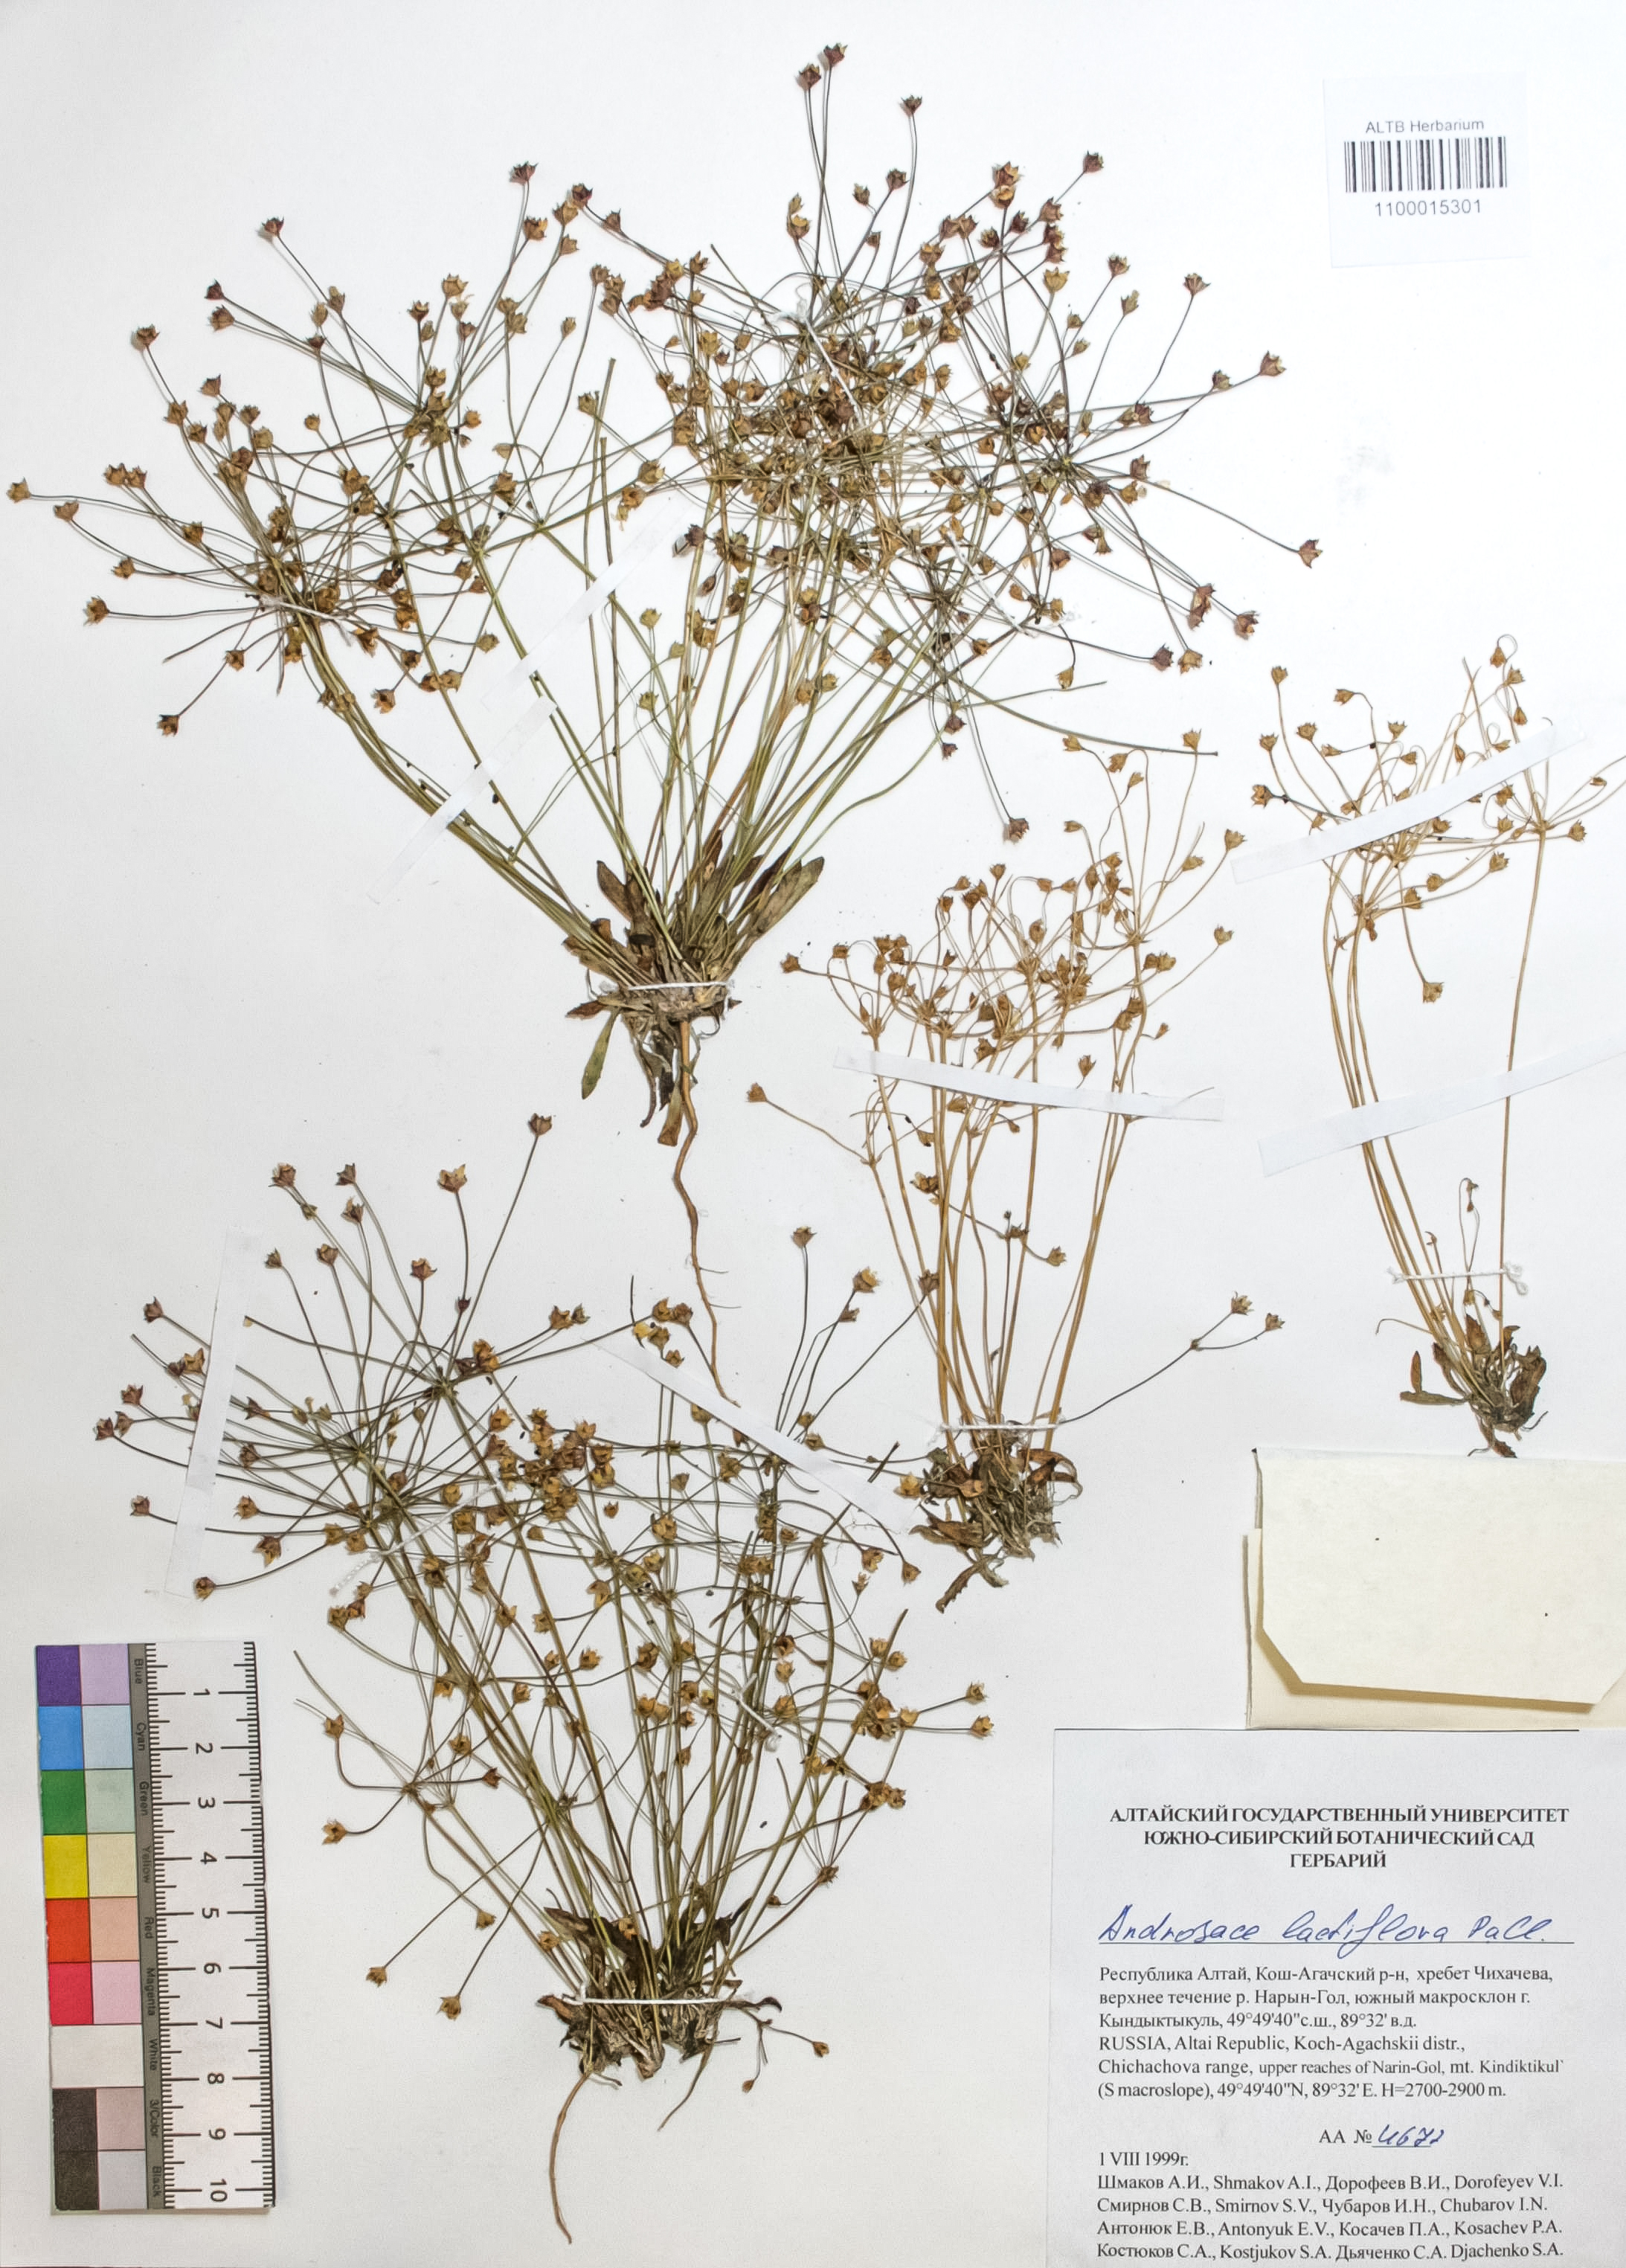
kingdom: Plantae
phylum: Tracheophyta
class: Magnoliopsida
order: Ericales
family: Primulaceae
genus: Androsace
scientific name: Androsace lactiflora
